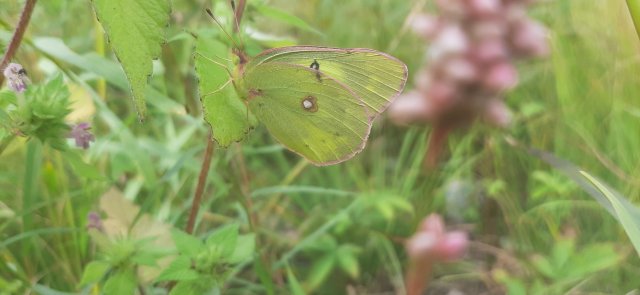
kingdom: Animalia
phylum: Arthropoda
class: Insecta
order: Lepidoptera
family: Pieridae
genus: Colias
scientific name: Colias philodice
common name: Clouded Sulphur
